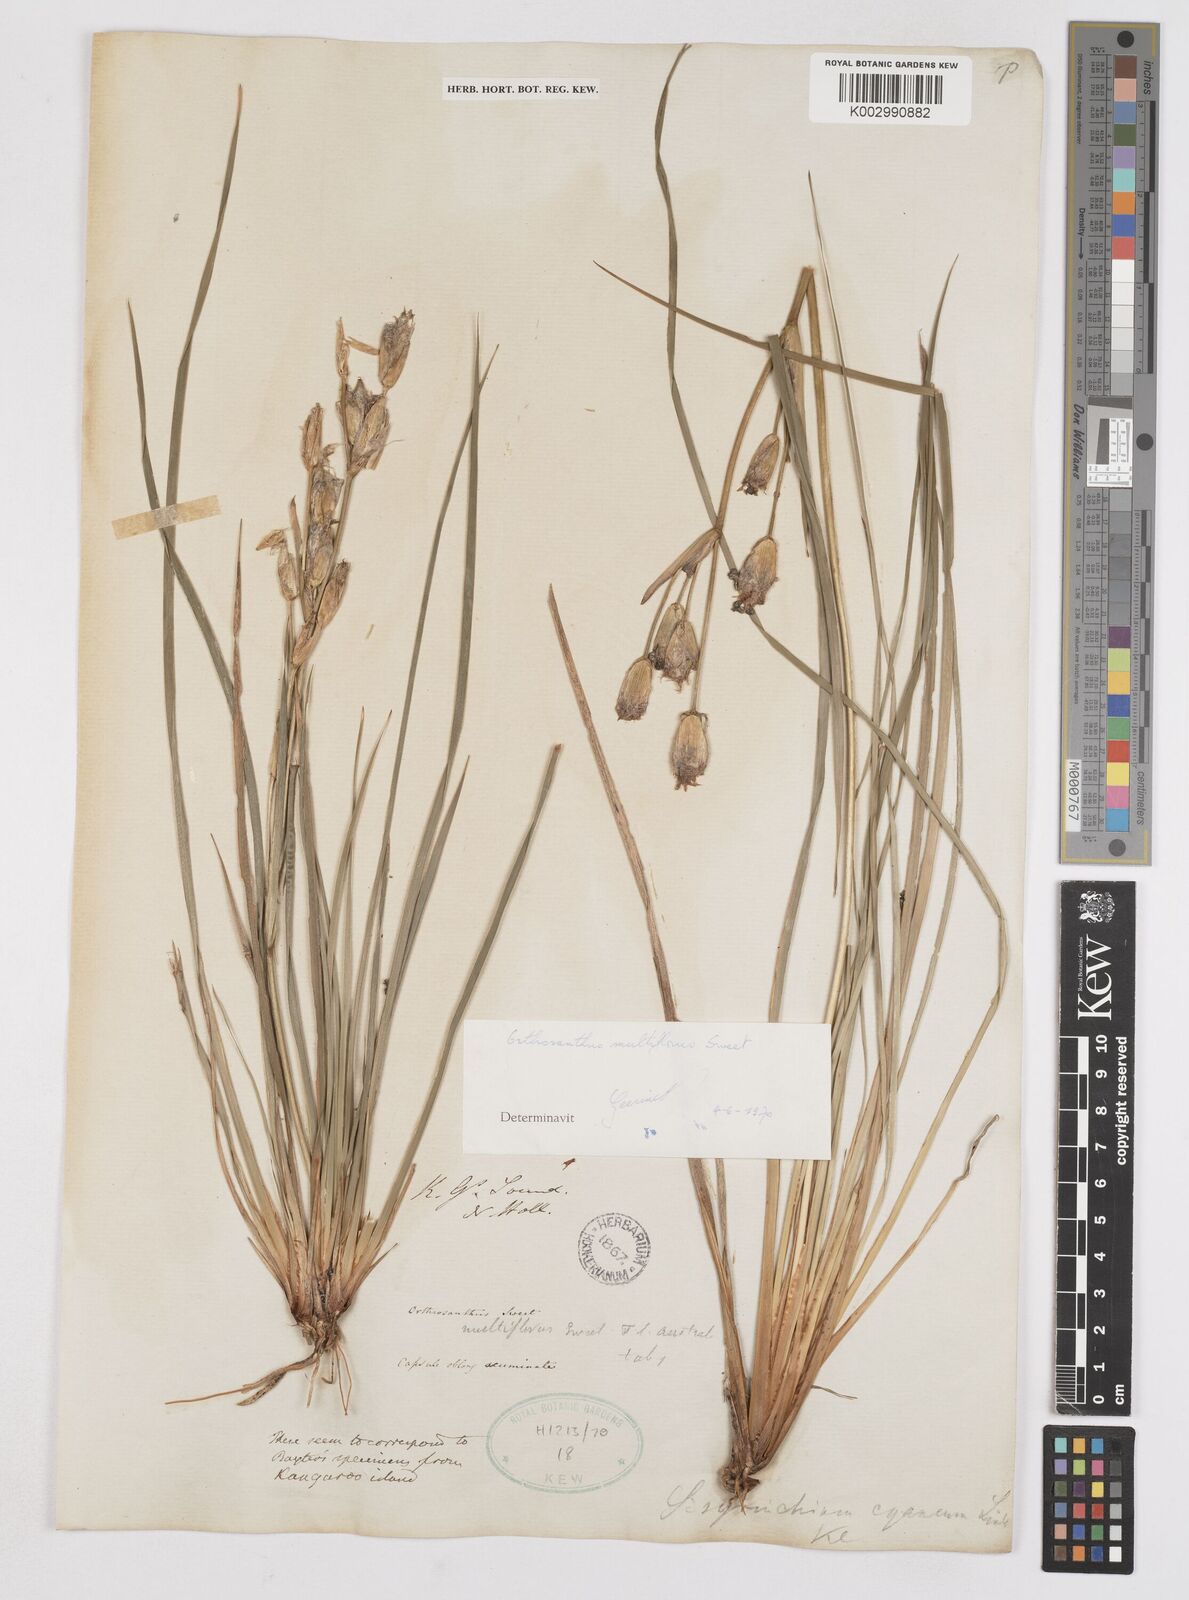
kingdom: Plantae
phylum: Tracheophyta
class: Liliopsida
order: Asparagales
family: Iridaceae
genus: Orthrosanthus
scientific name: Orthrosanthus multiflorus
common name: Morning-flag
